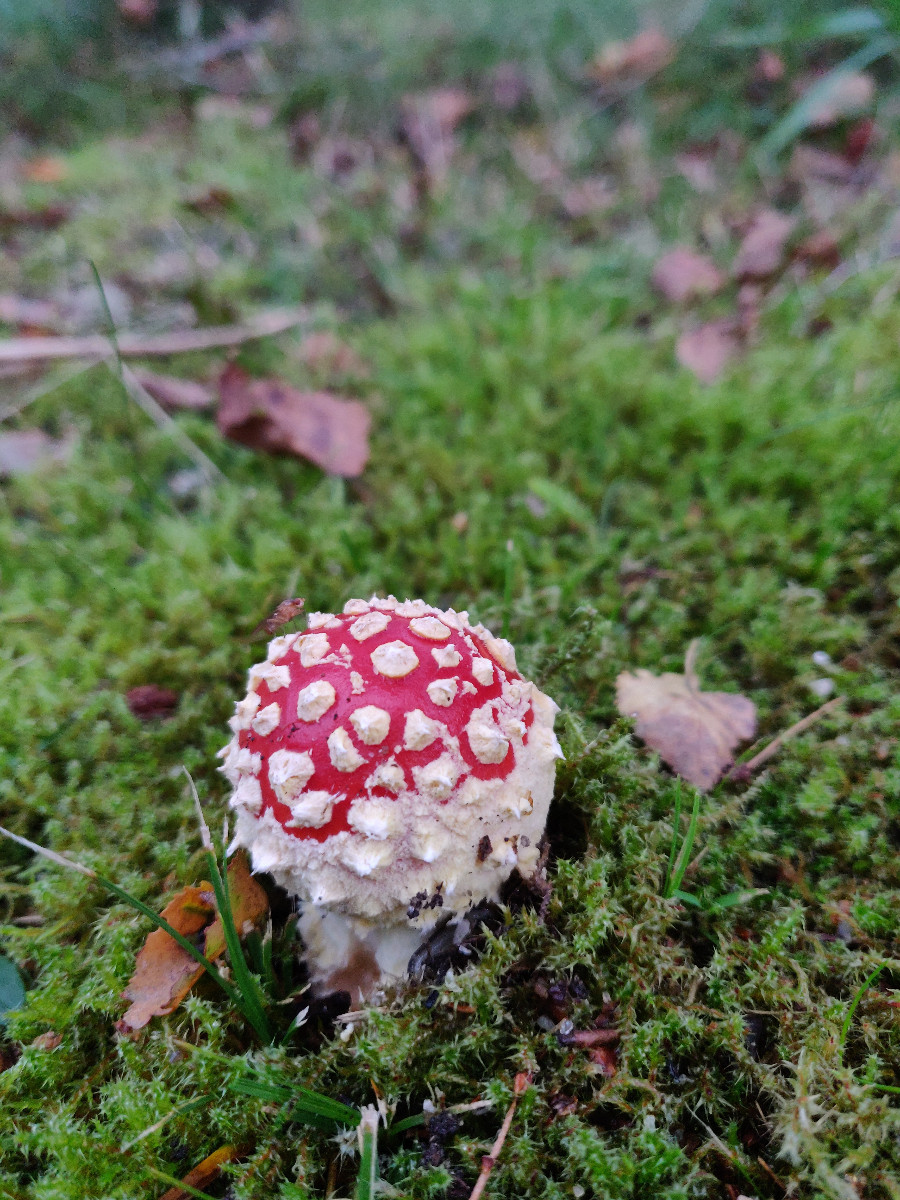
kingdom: Fungi
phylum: Basidiomycota
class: Agaricomycetes
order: Agaricales
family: Amanitaceae
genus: Amanita
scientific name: Amanita muscaria
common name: rød fluesvamp
